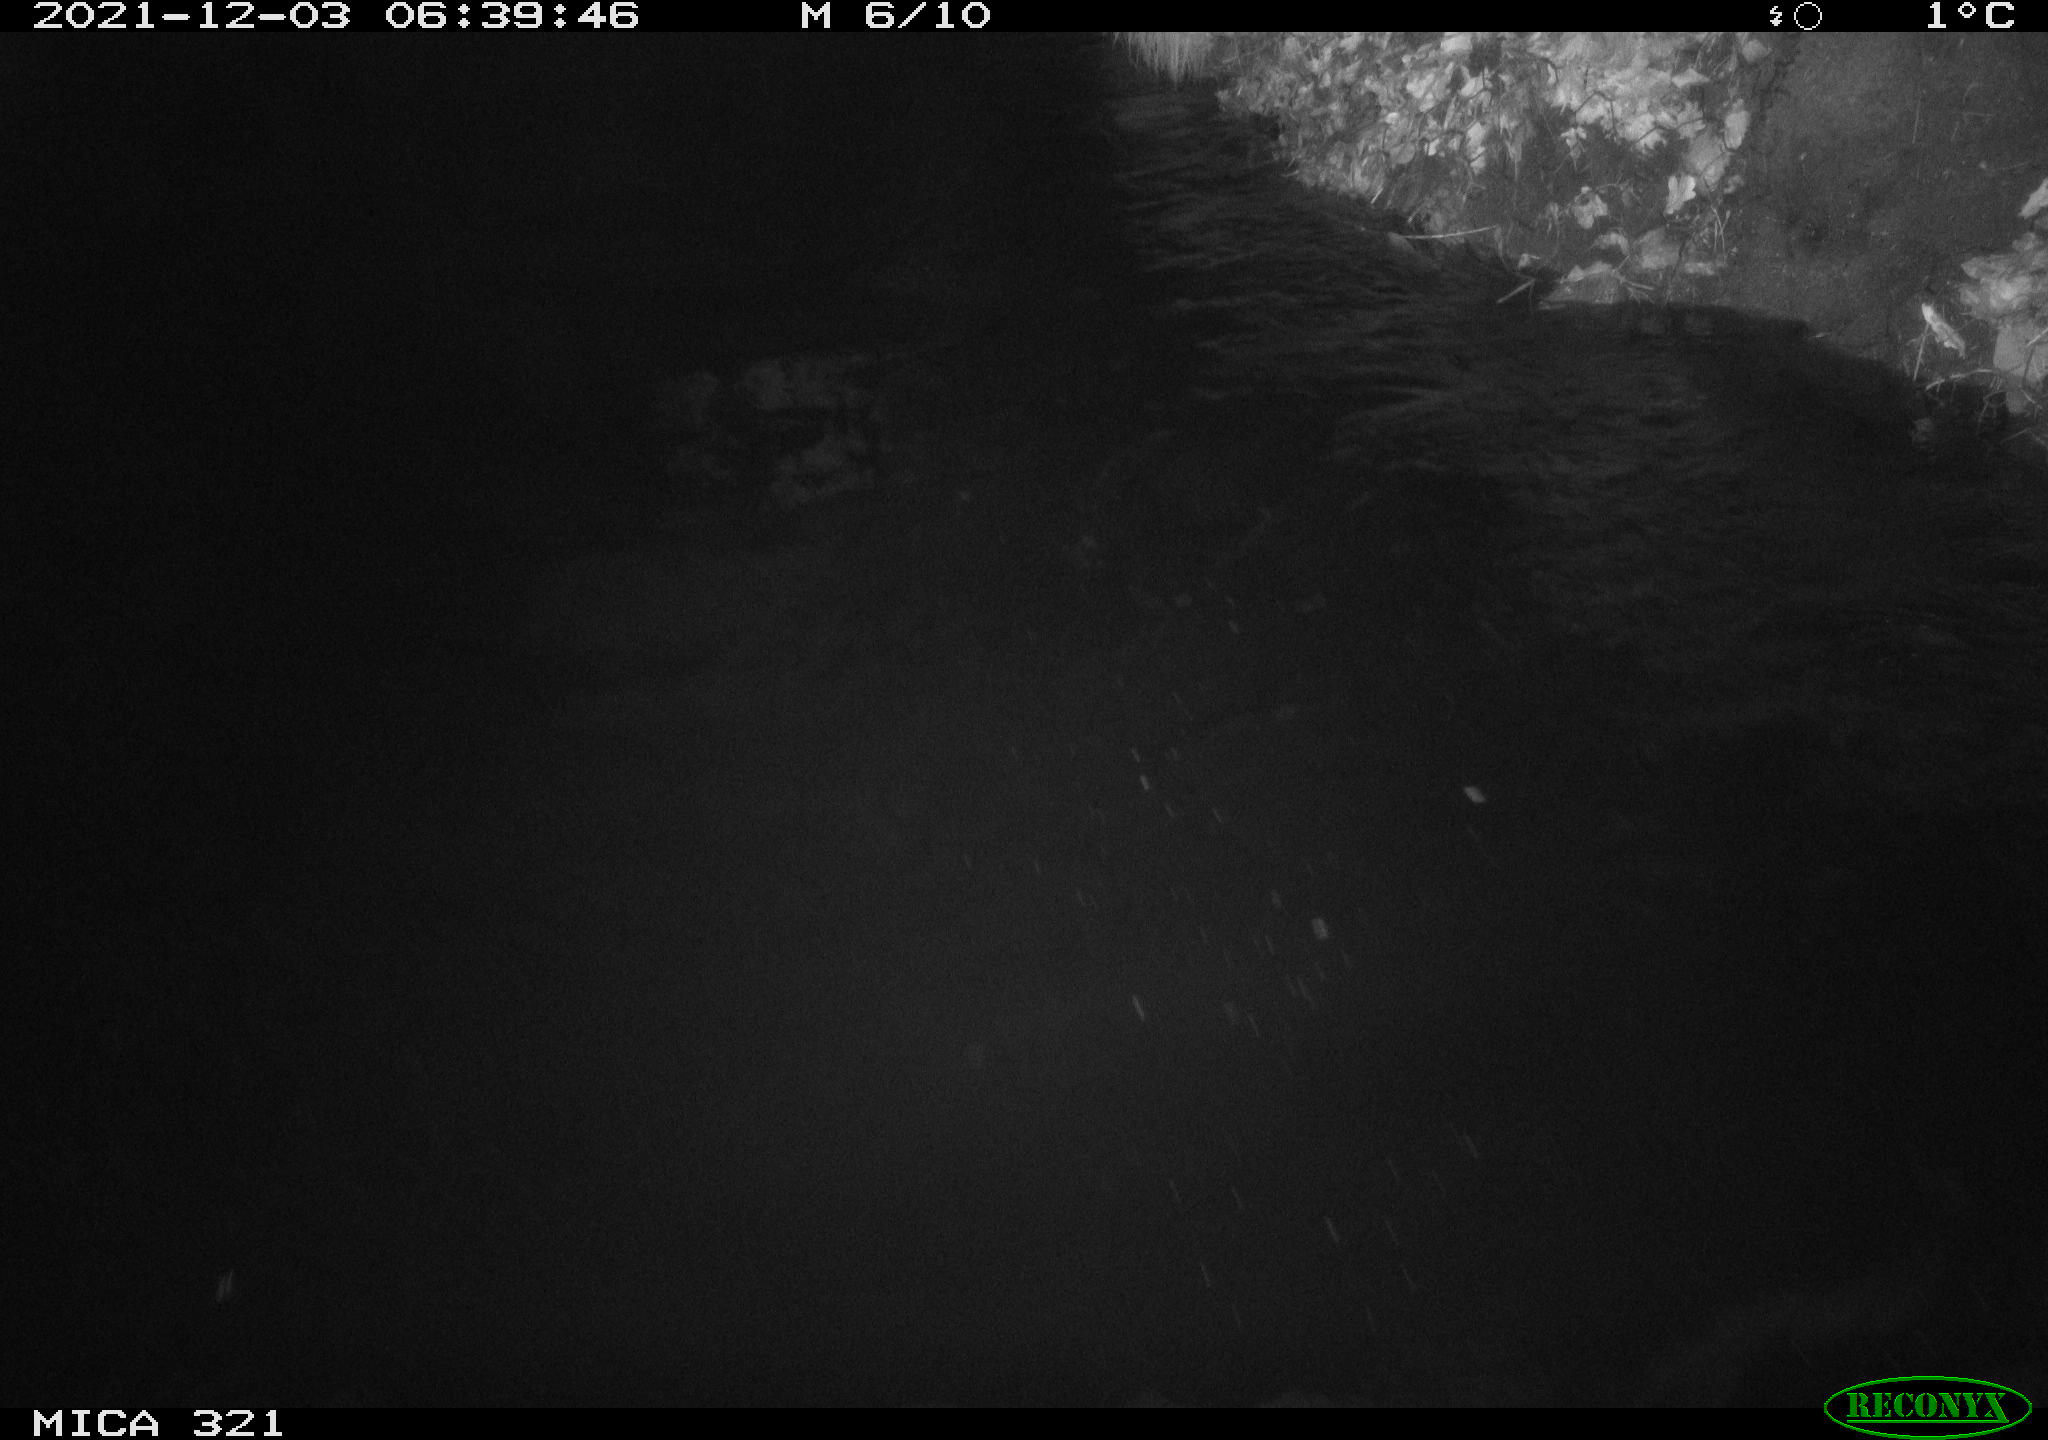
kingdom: Animalia
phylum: Chordata
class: Mammalia
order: Rodentia
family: Muridae
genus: Rattus
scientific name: Rattus norvegicus
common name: Brown rat
